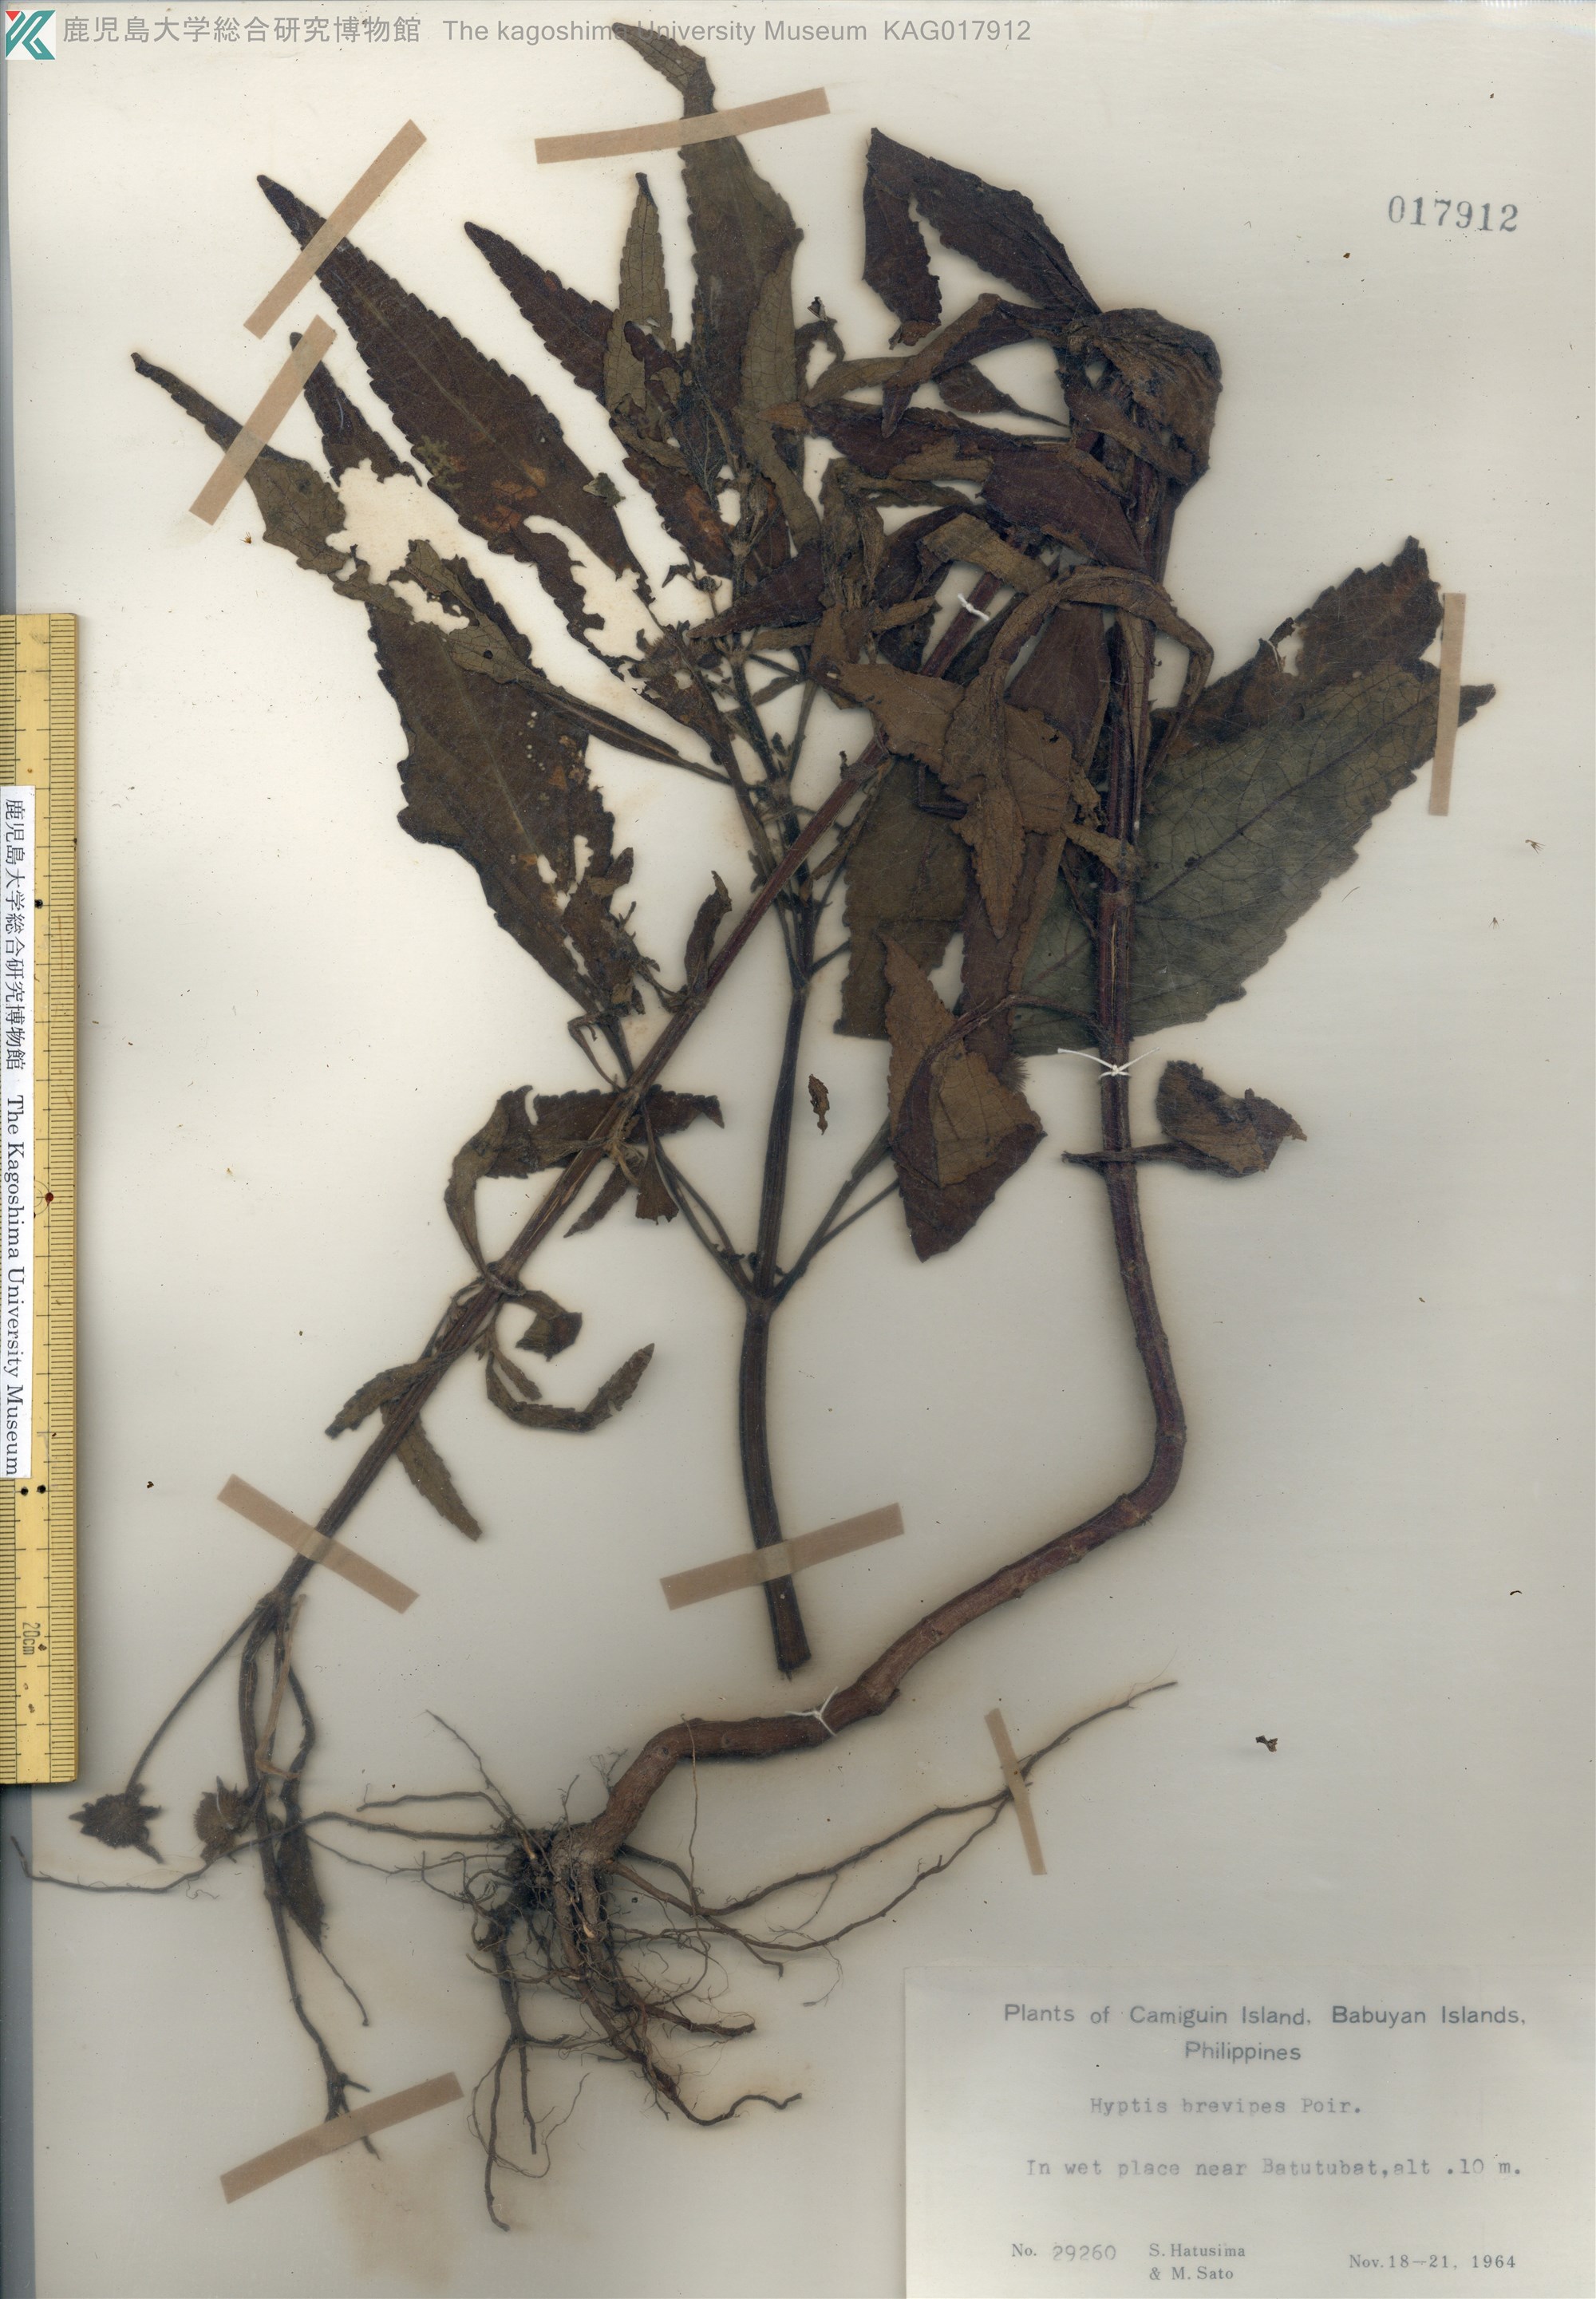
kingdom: Plantae
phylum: Tracheophyta
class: Magnoliopsida
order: Lamiales
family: Lamiaceae
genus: Hyptis
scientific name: Hyptis brevipes
